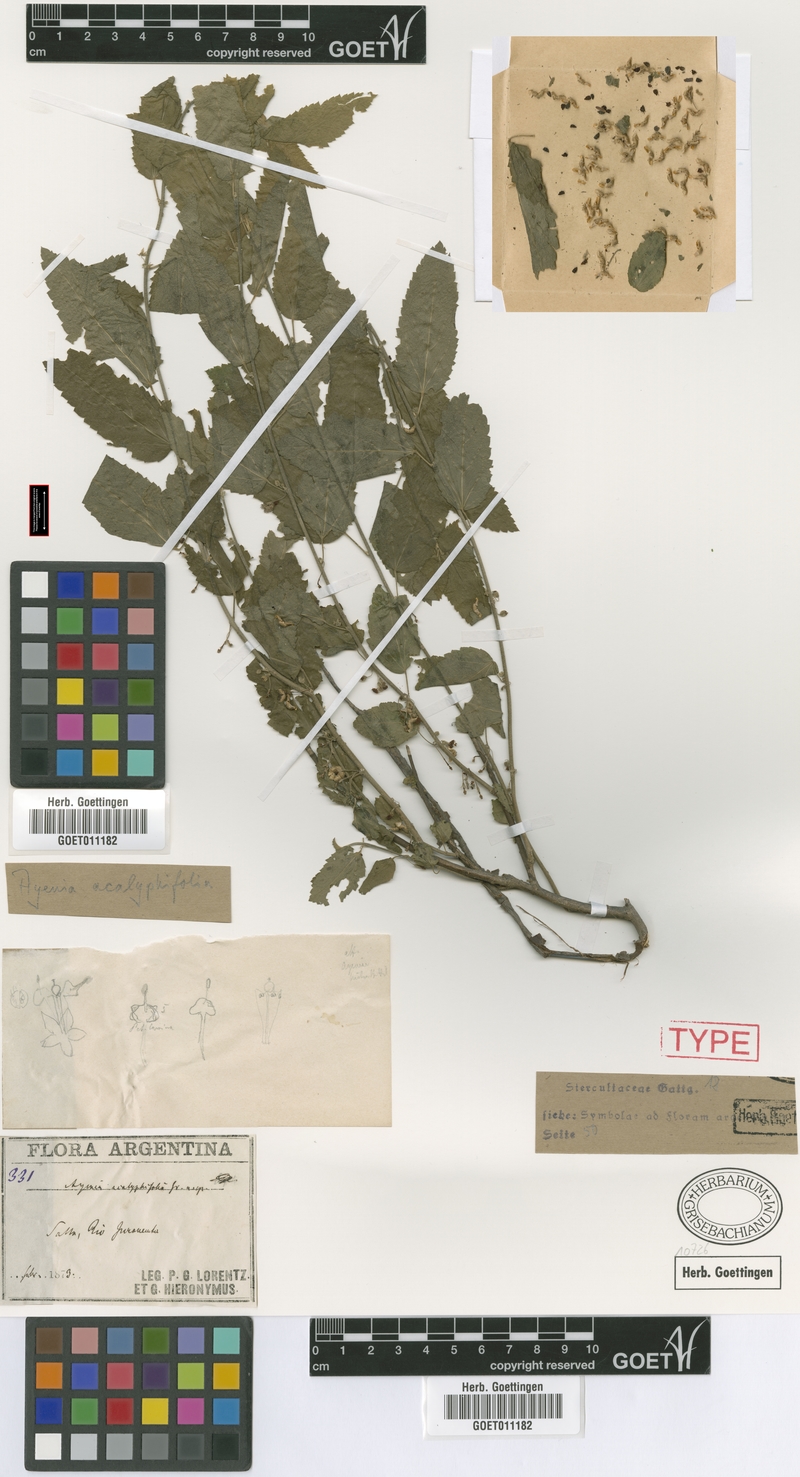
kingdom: Plantae
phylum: Tracheophyta
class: Magnoliopsida
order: Malvales
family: Malvaceae
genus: Ayenia
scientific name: Ayenia acalyphifolia
